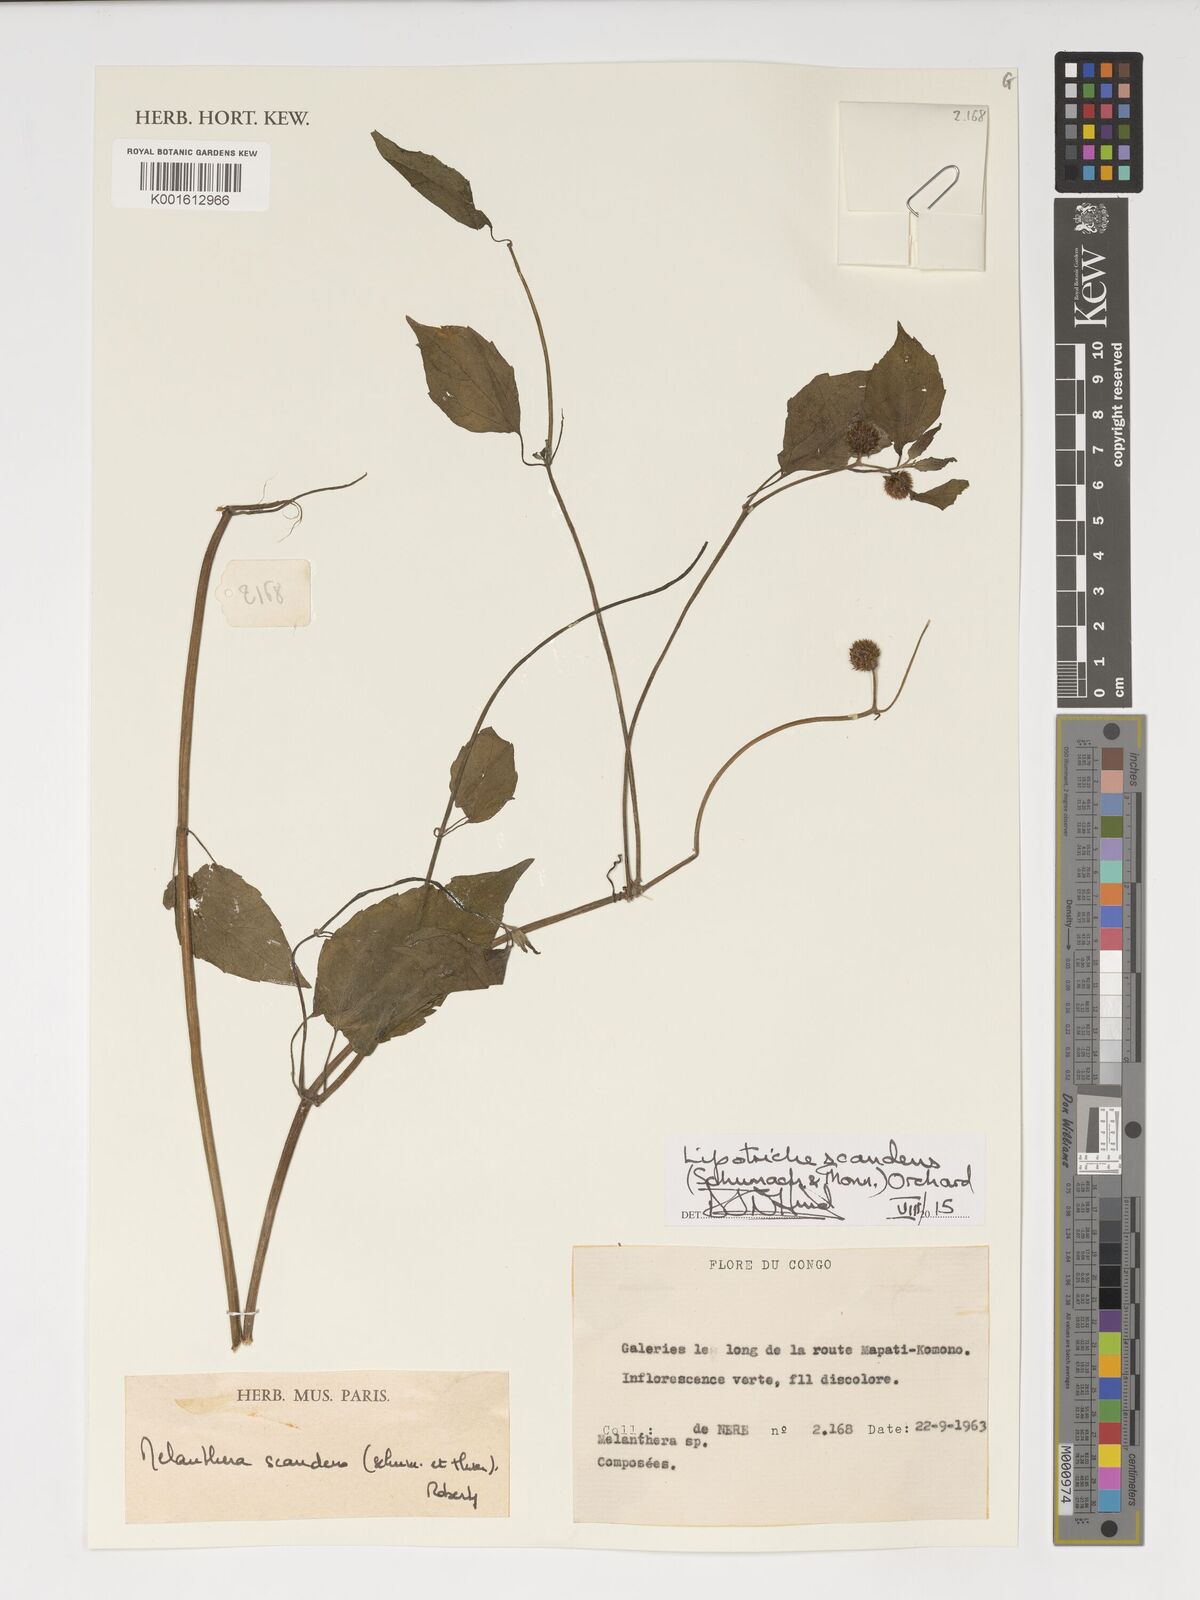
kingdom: Plantae
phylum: Tracheophyta
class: Magnoliopsida
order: Asterales
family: Asteraceae
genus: Lipotriche
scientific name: Lipotriche scandens
